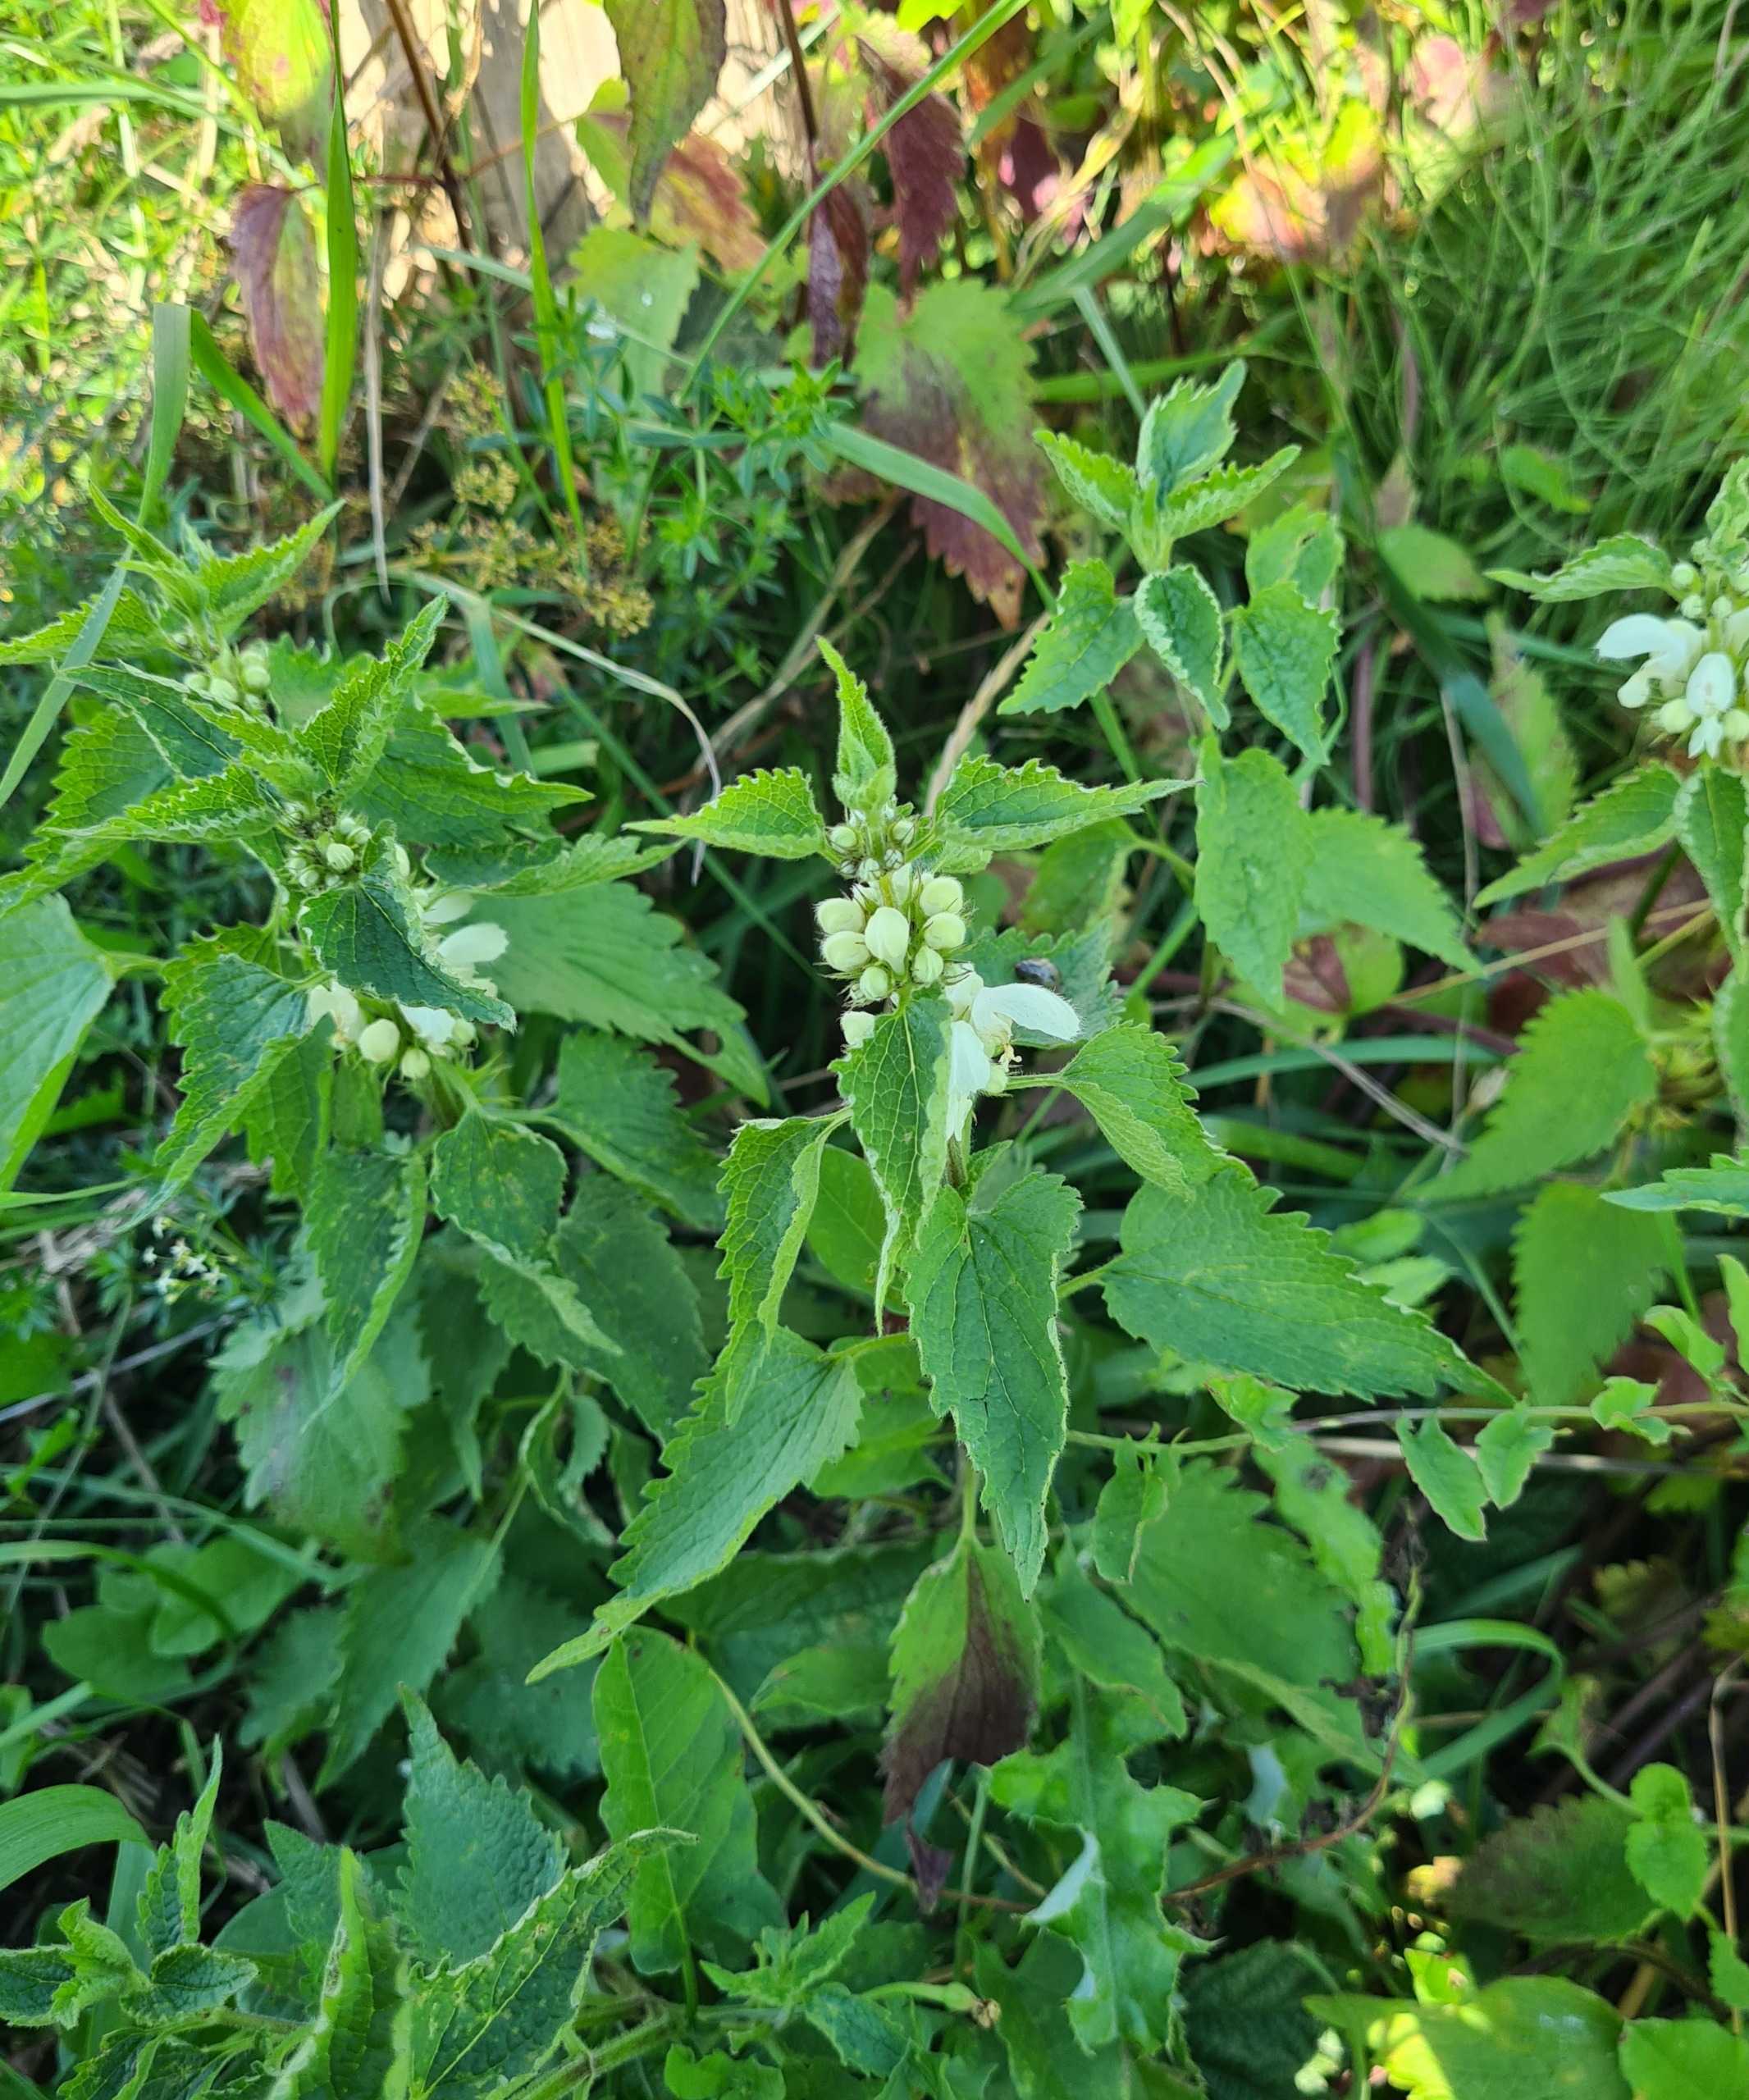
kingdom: Plantae
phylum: Tracheophyta
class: Magnoliopsida
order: Lamiales
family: Lamiaceae
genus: Lamium
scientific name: Lamium album
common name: Døvnælde
